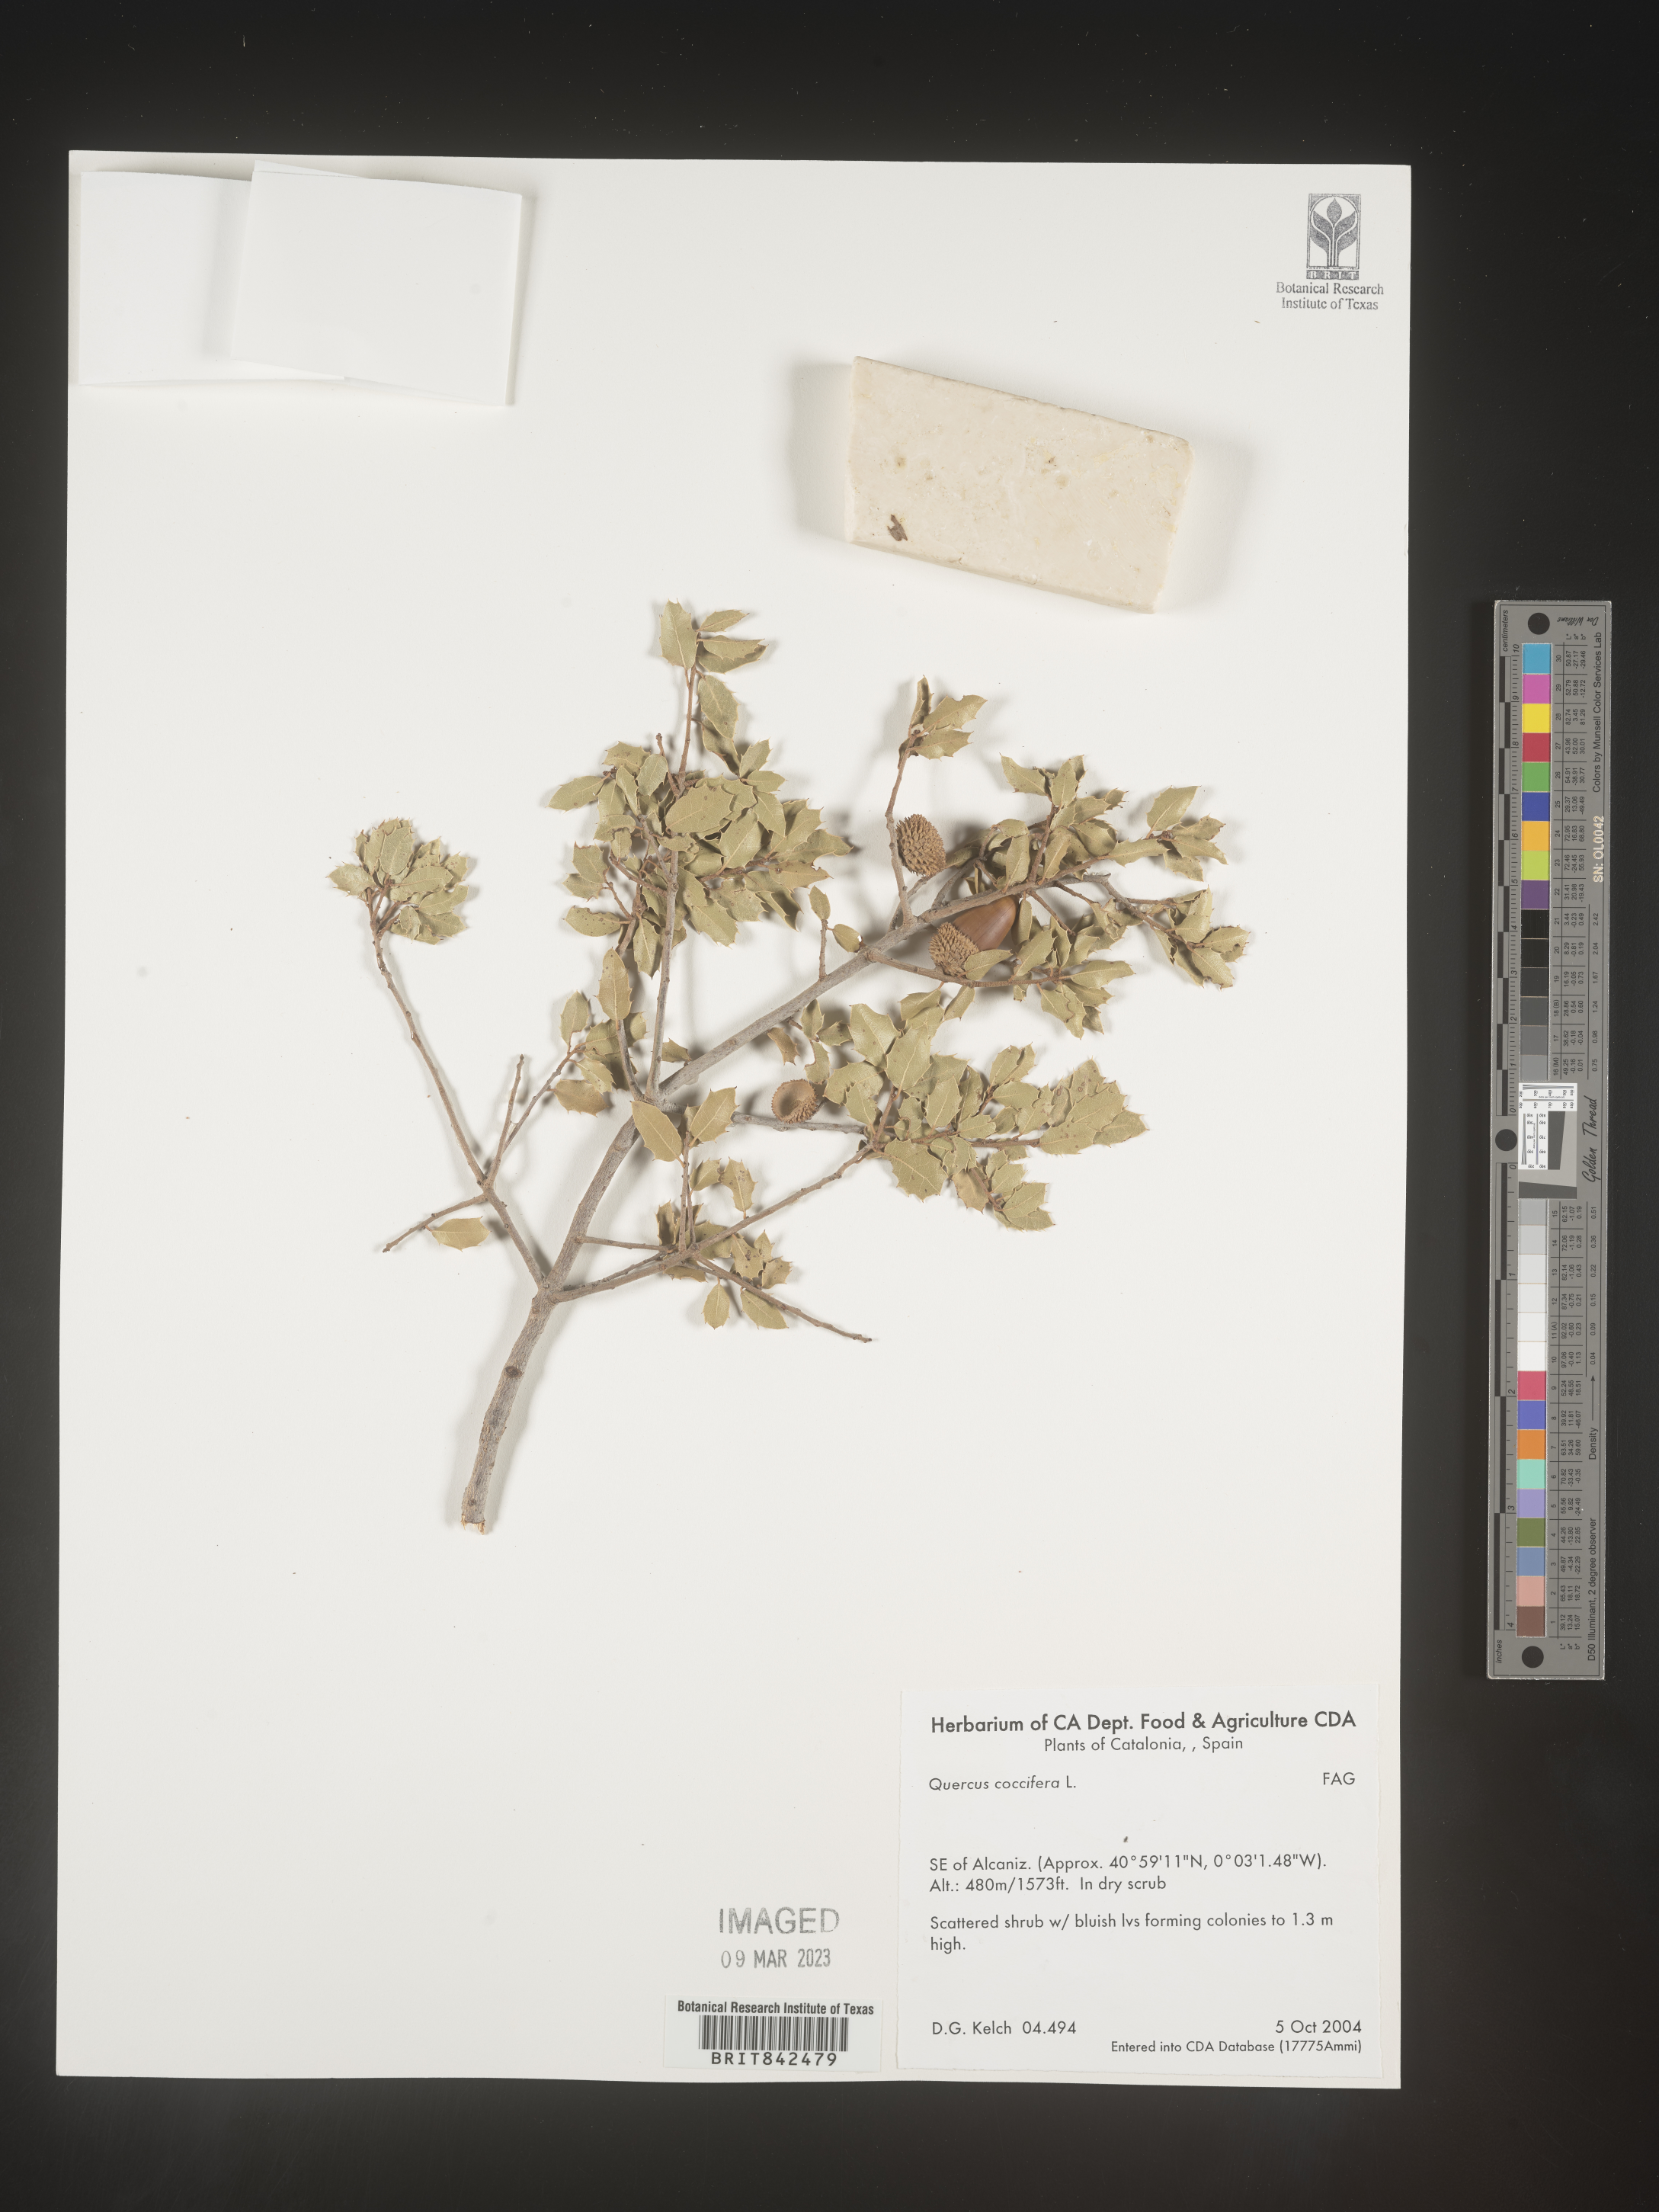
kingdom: Plantae
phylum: Tracheophyta
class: Magnoliopsida
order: Fagales
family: Fagaceae
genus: Quercus
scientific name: Quercus
